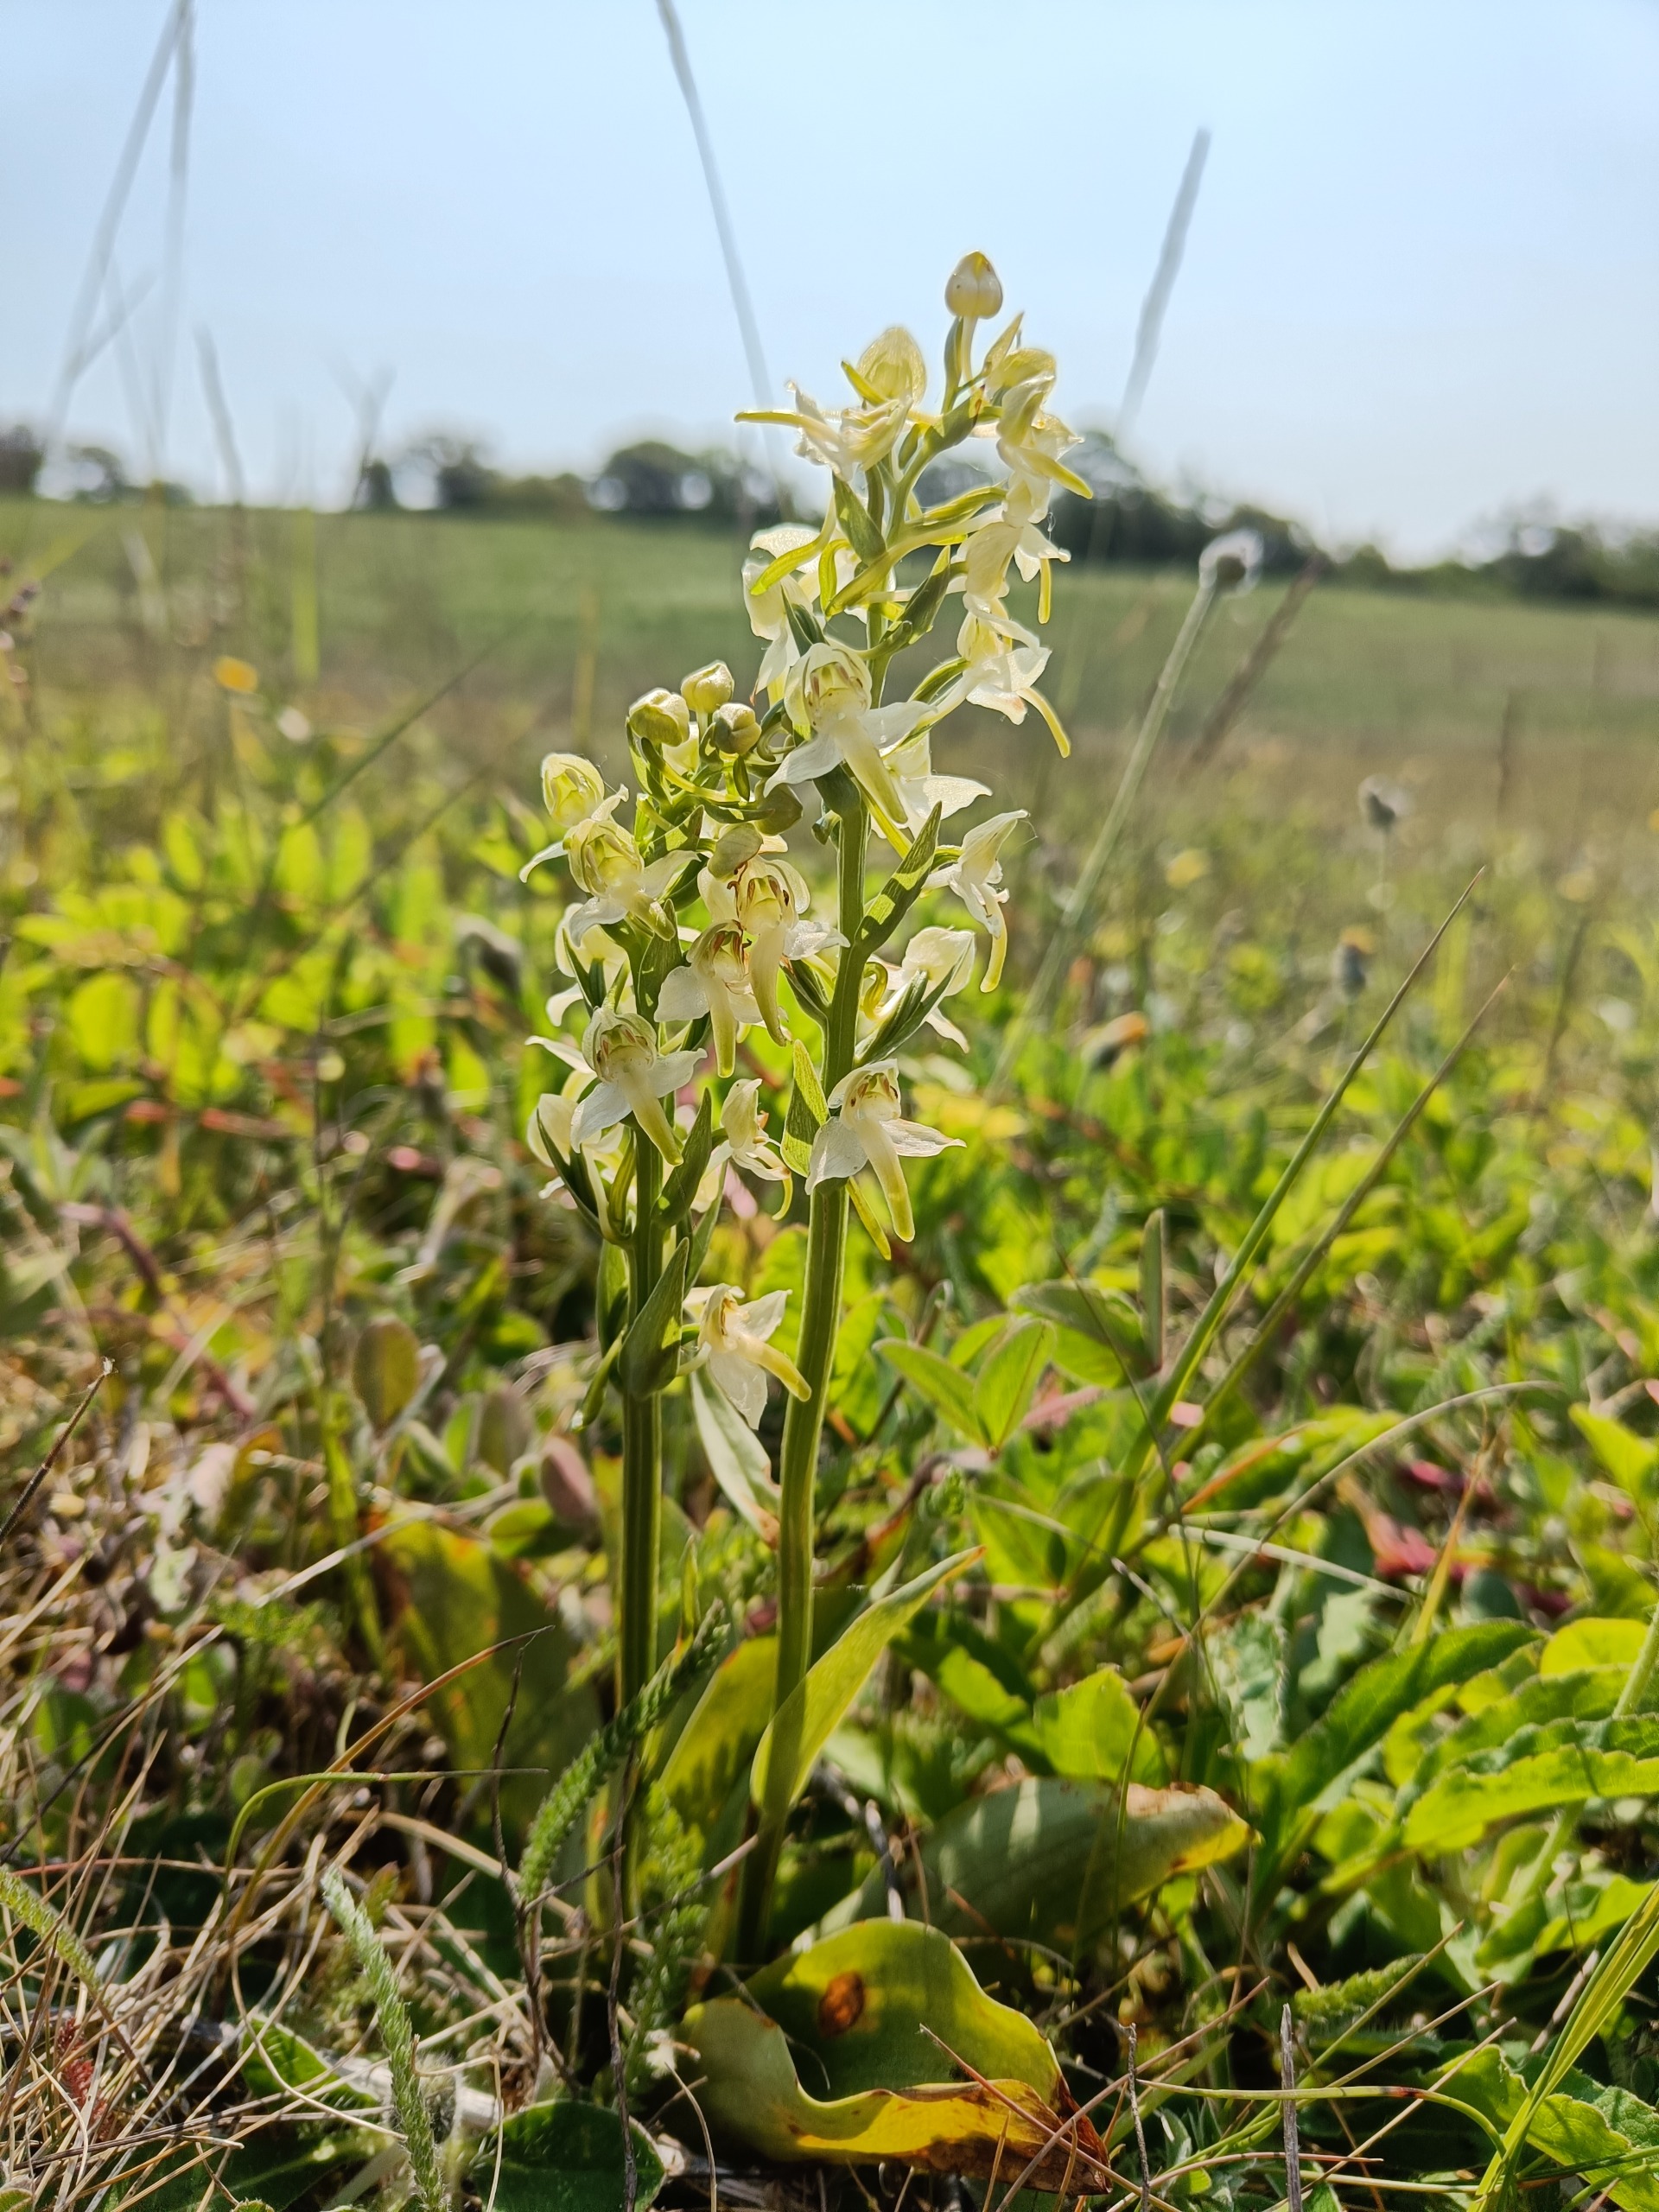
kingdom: Plantae
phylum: Tracheophyta
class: Liliopsida
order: Asparagales
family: Orchidaceae
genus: Platanthera
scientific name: Platanthera chlorantha
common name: Skov-gøgelilje
